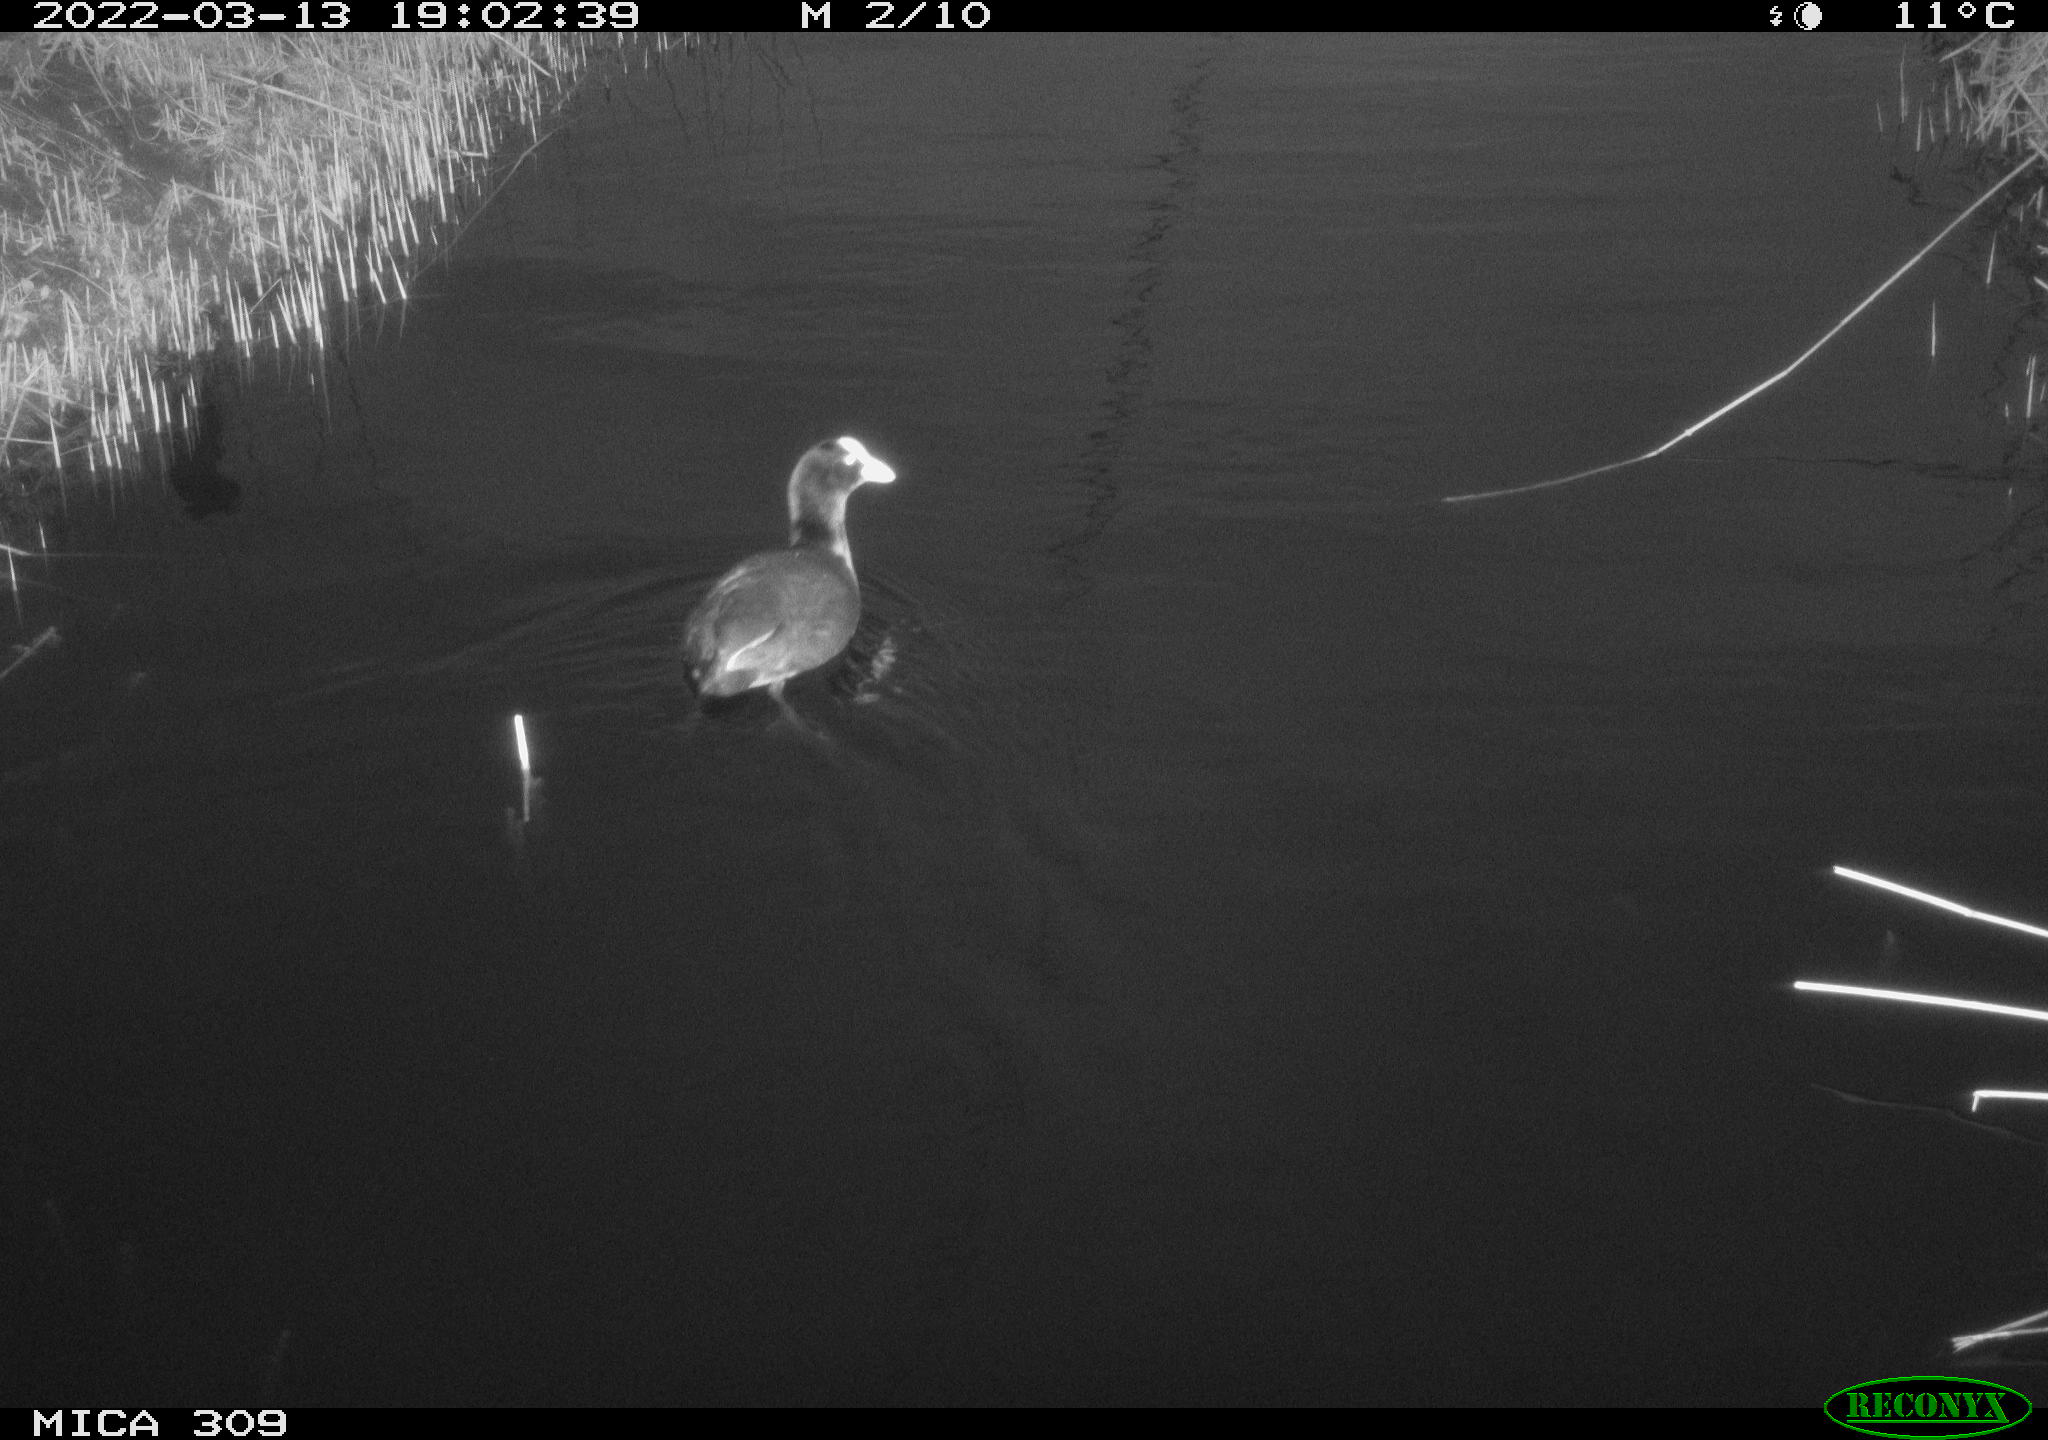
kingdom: Animalia
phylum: Chordata
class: Aves
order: Gruiformes
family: Rallidae
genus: Fulica
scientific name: Fulica atra
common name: Eurasian coot
